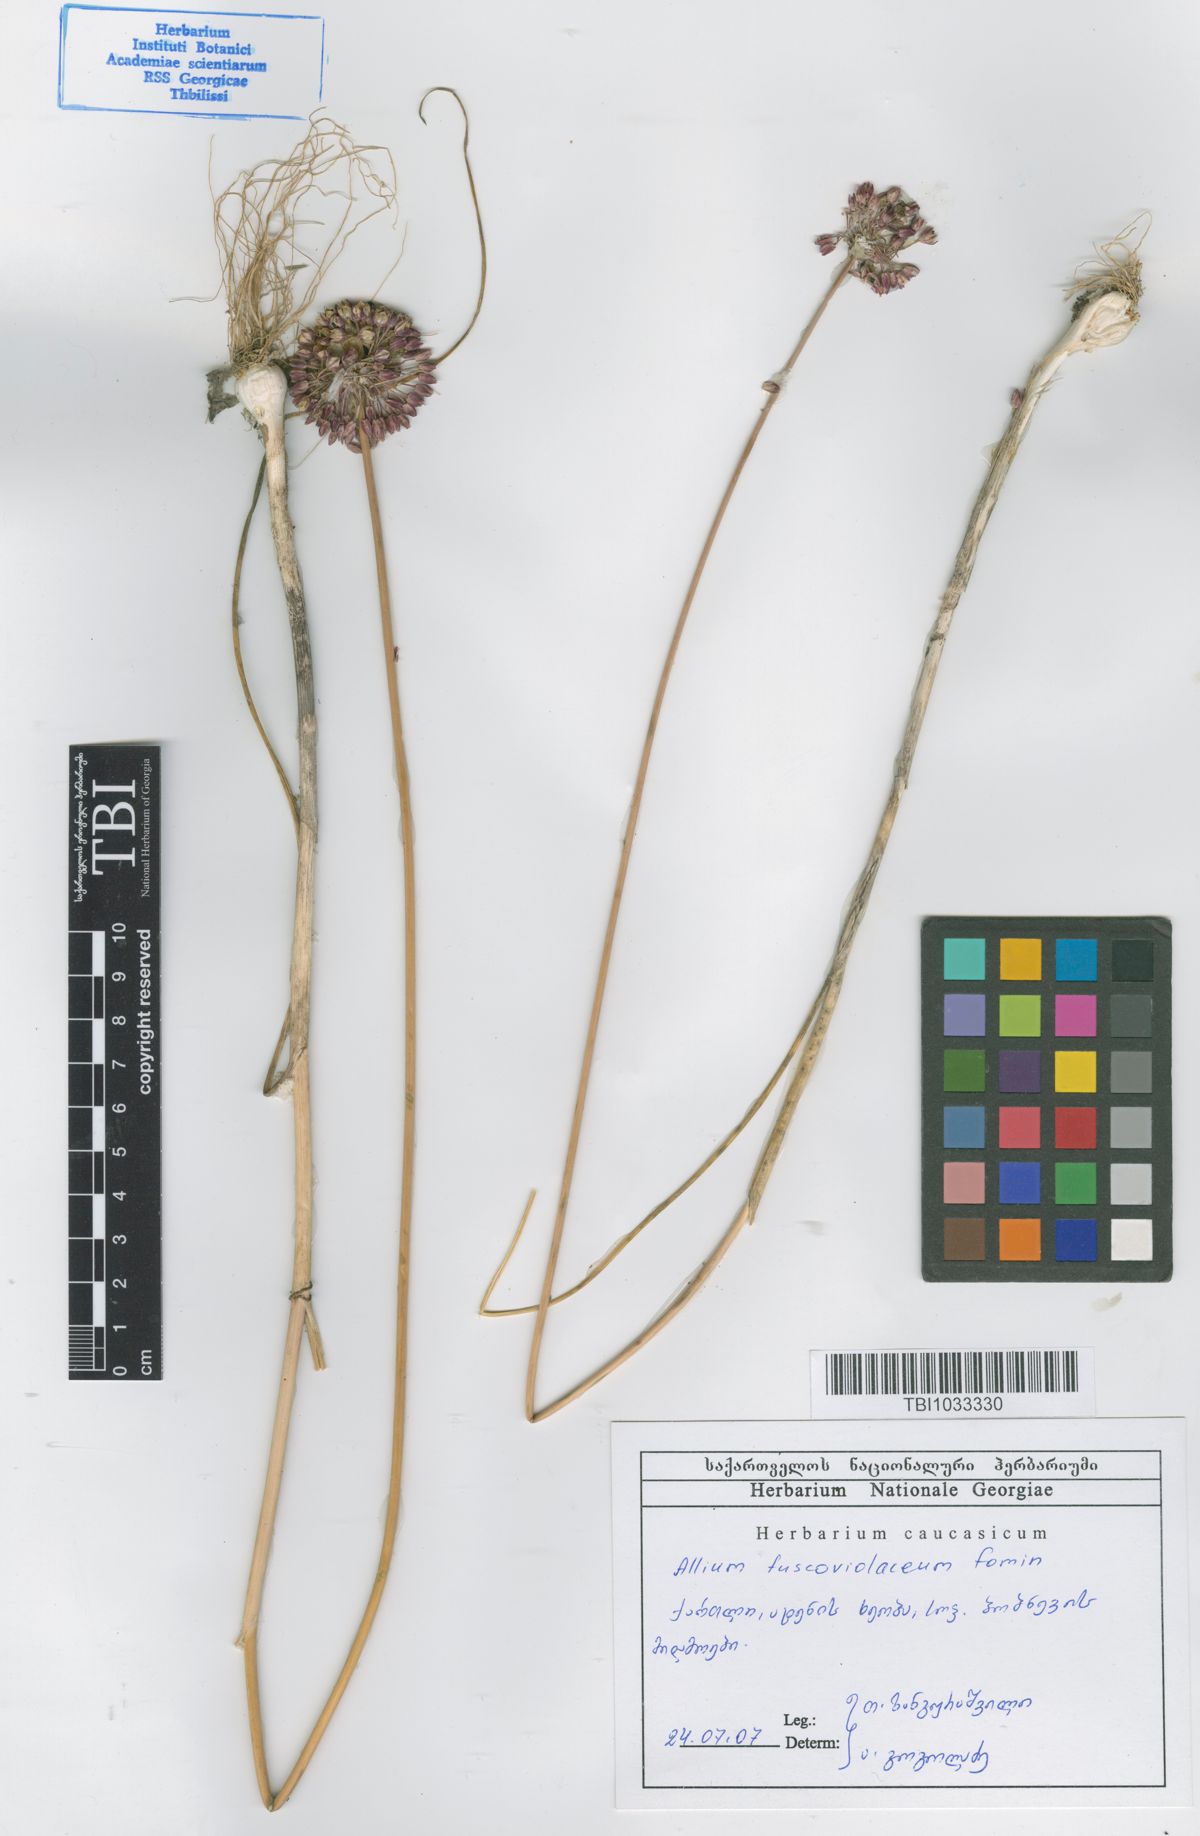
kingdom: Plantae
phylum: Tracheophyta
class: Liliopsida
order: Asparagales
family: Amaryllidaceae
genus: Allium
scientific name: Allium fuscoviolaceum
